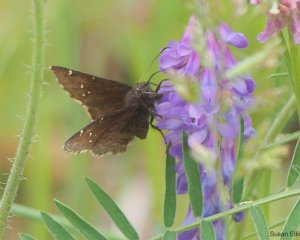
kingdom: Animalia
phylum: Arthropoda
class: Insecta
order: Lepidoptera
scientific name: Lepidoptera
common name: Butterflies
